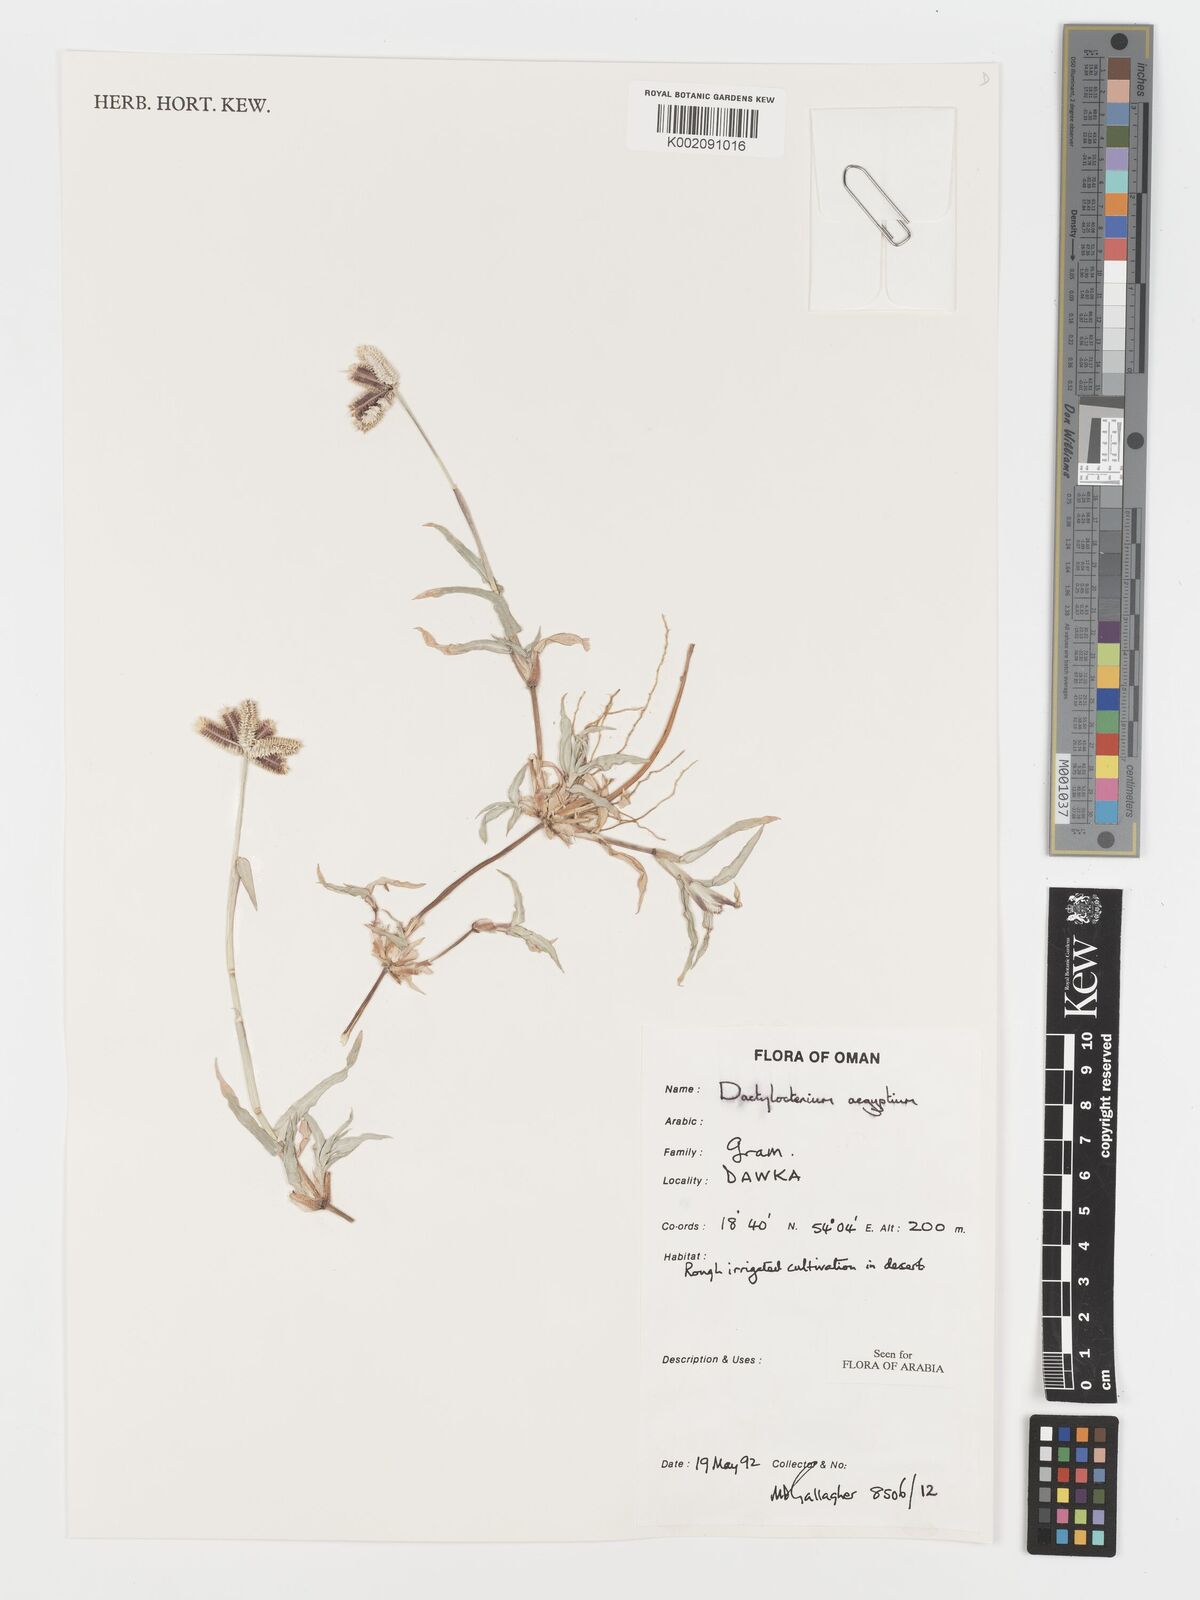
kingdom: Plantae
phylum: Tracheophyta
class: Liliopsida
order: Poales
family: Poaceae
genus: Dactyloctenium
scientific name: Dactyloctenium aegyptium
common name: Egyptian grass
